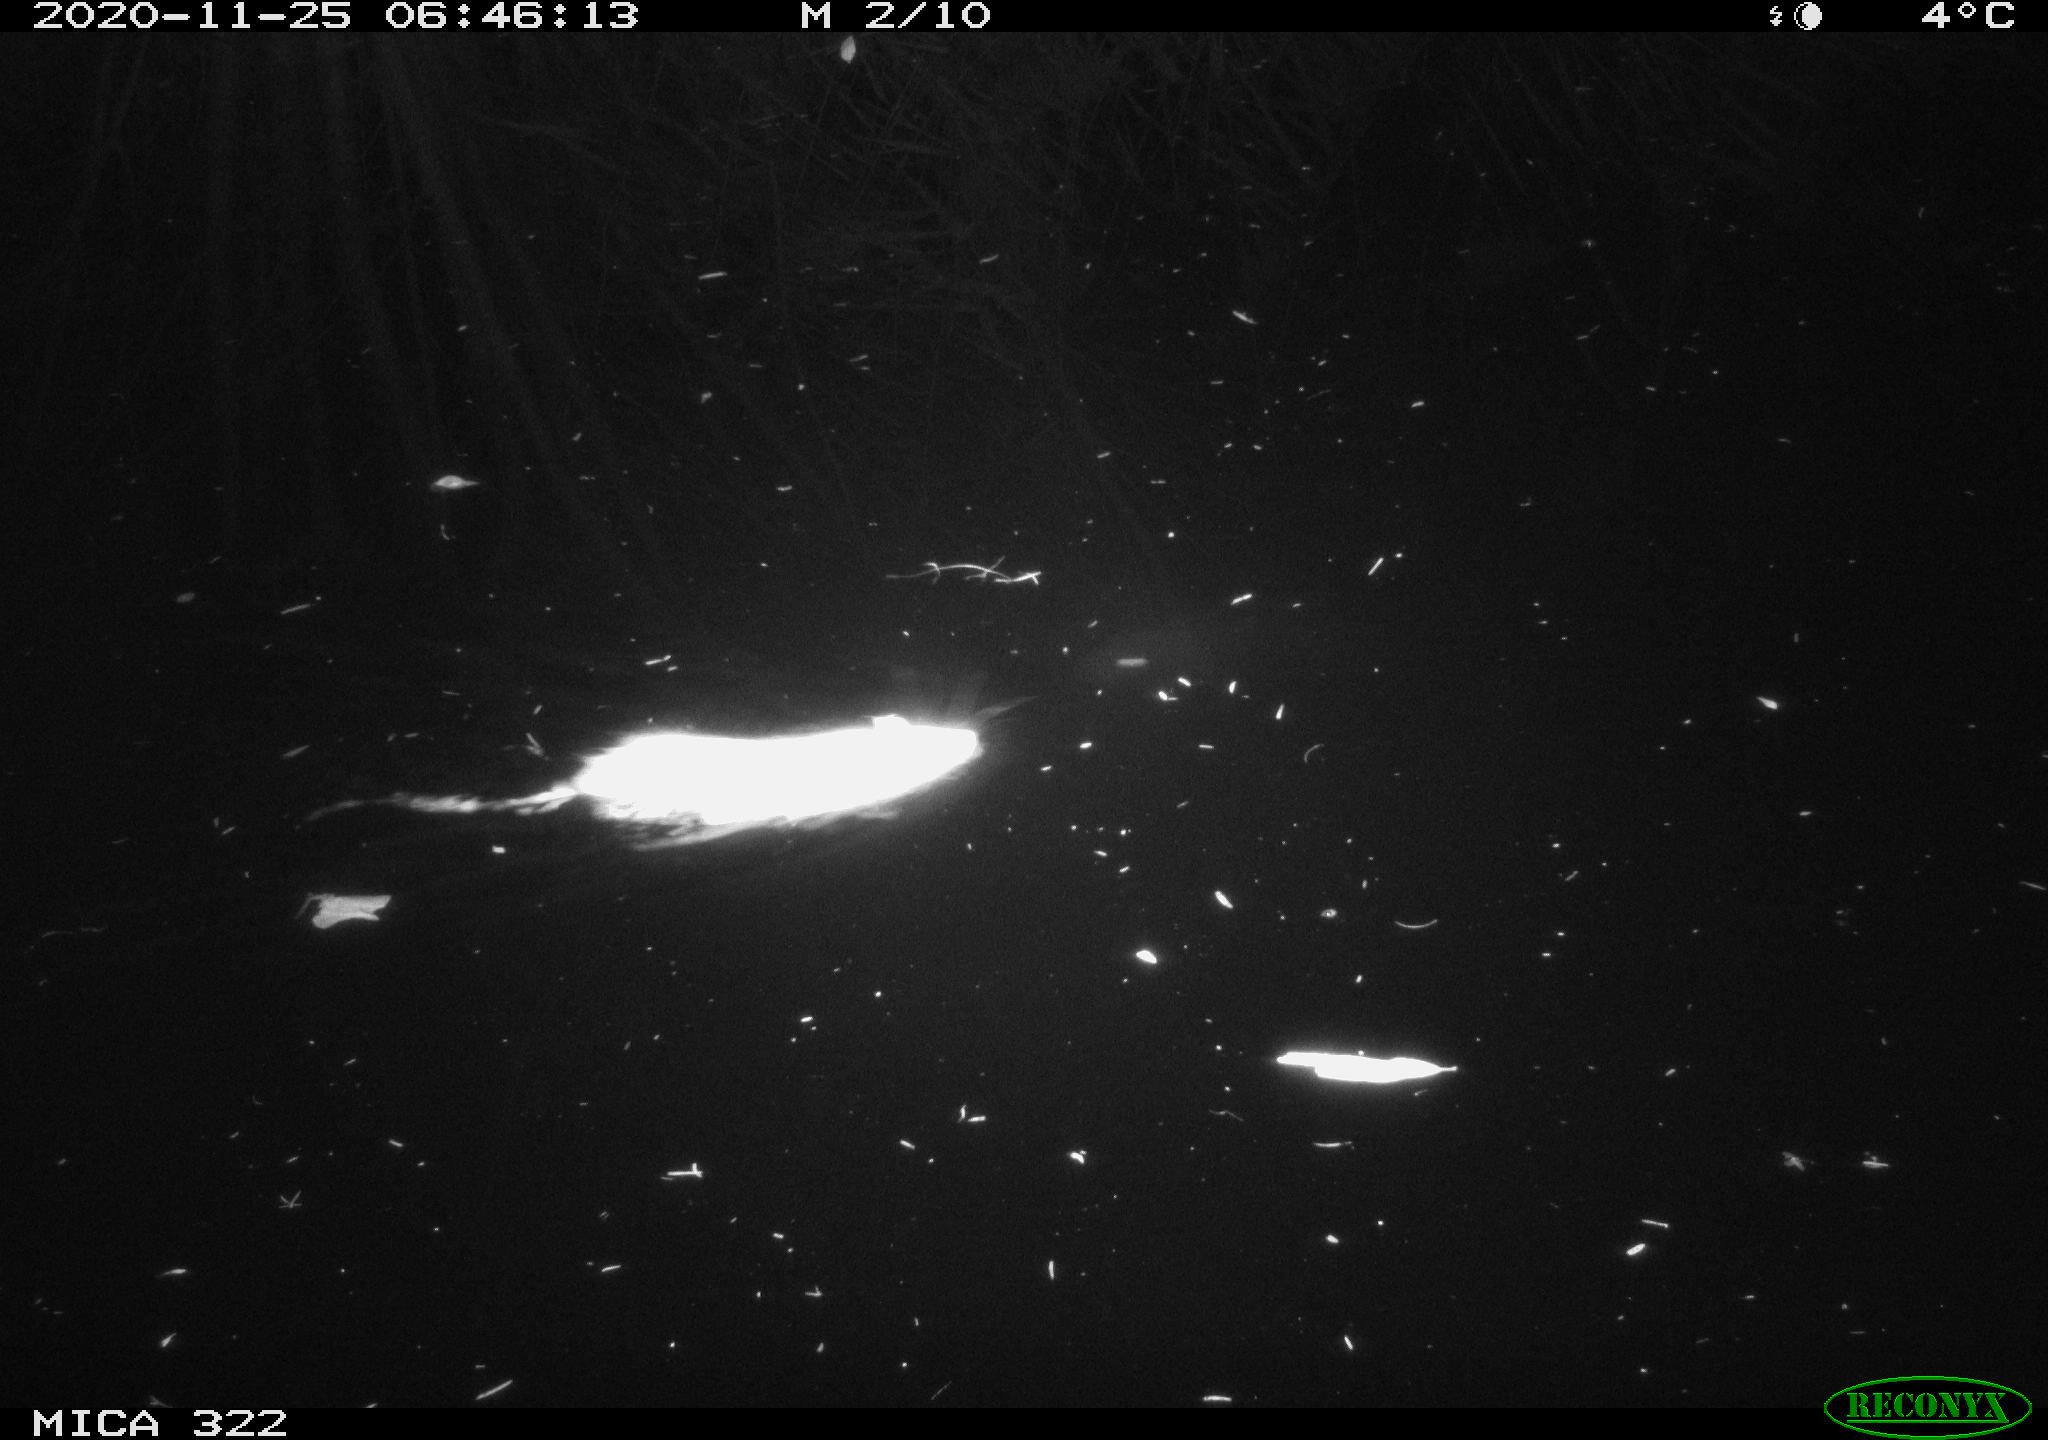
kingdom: Animalia
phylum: Chordata
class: Mammalia
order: Rodentia
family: Muridae
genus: Rattus
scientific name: Rattus norvegicus
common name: Brown rat
